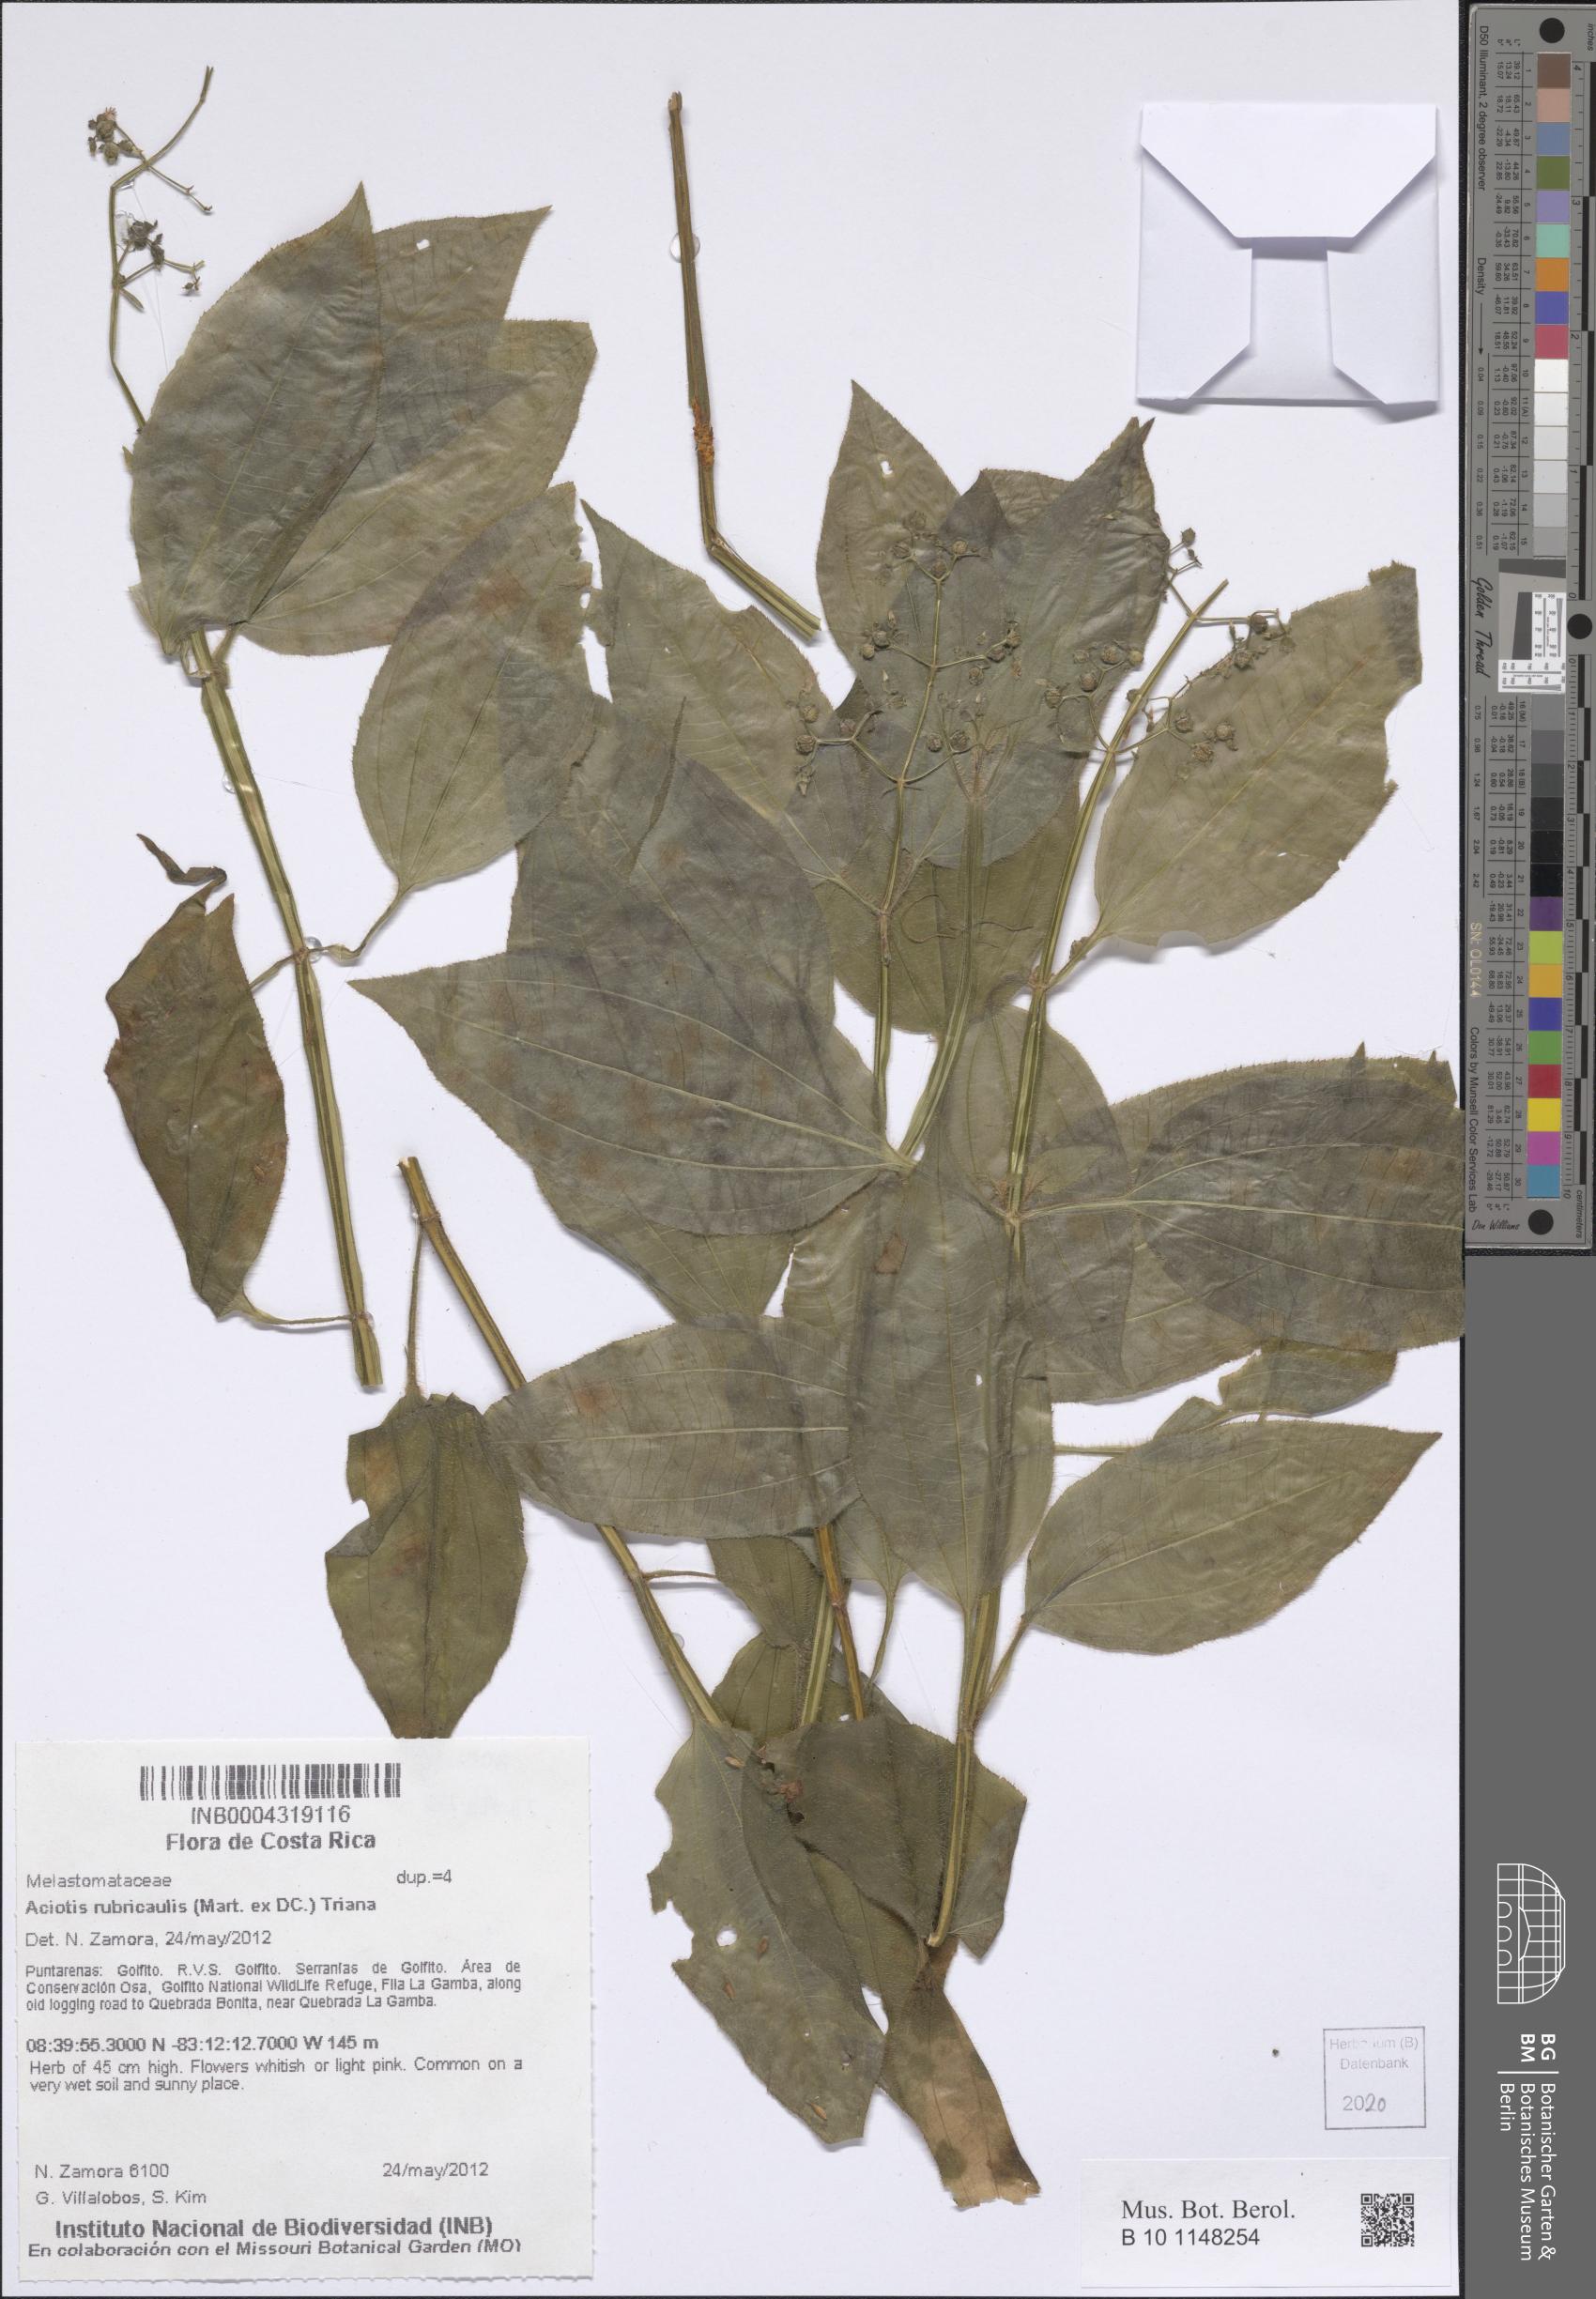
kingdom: Plantae
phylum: Tracheophyta
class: Magnoliopsida
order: Myrtales
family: Melastomataceae
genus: Aciotis
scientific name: Aciotis rubricaulis
